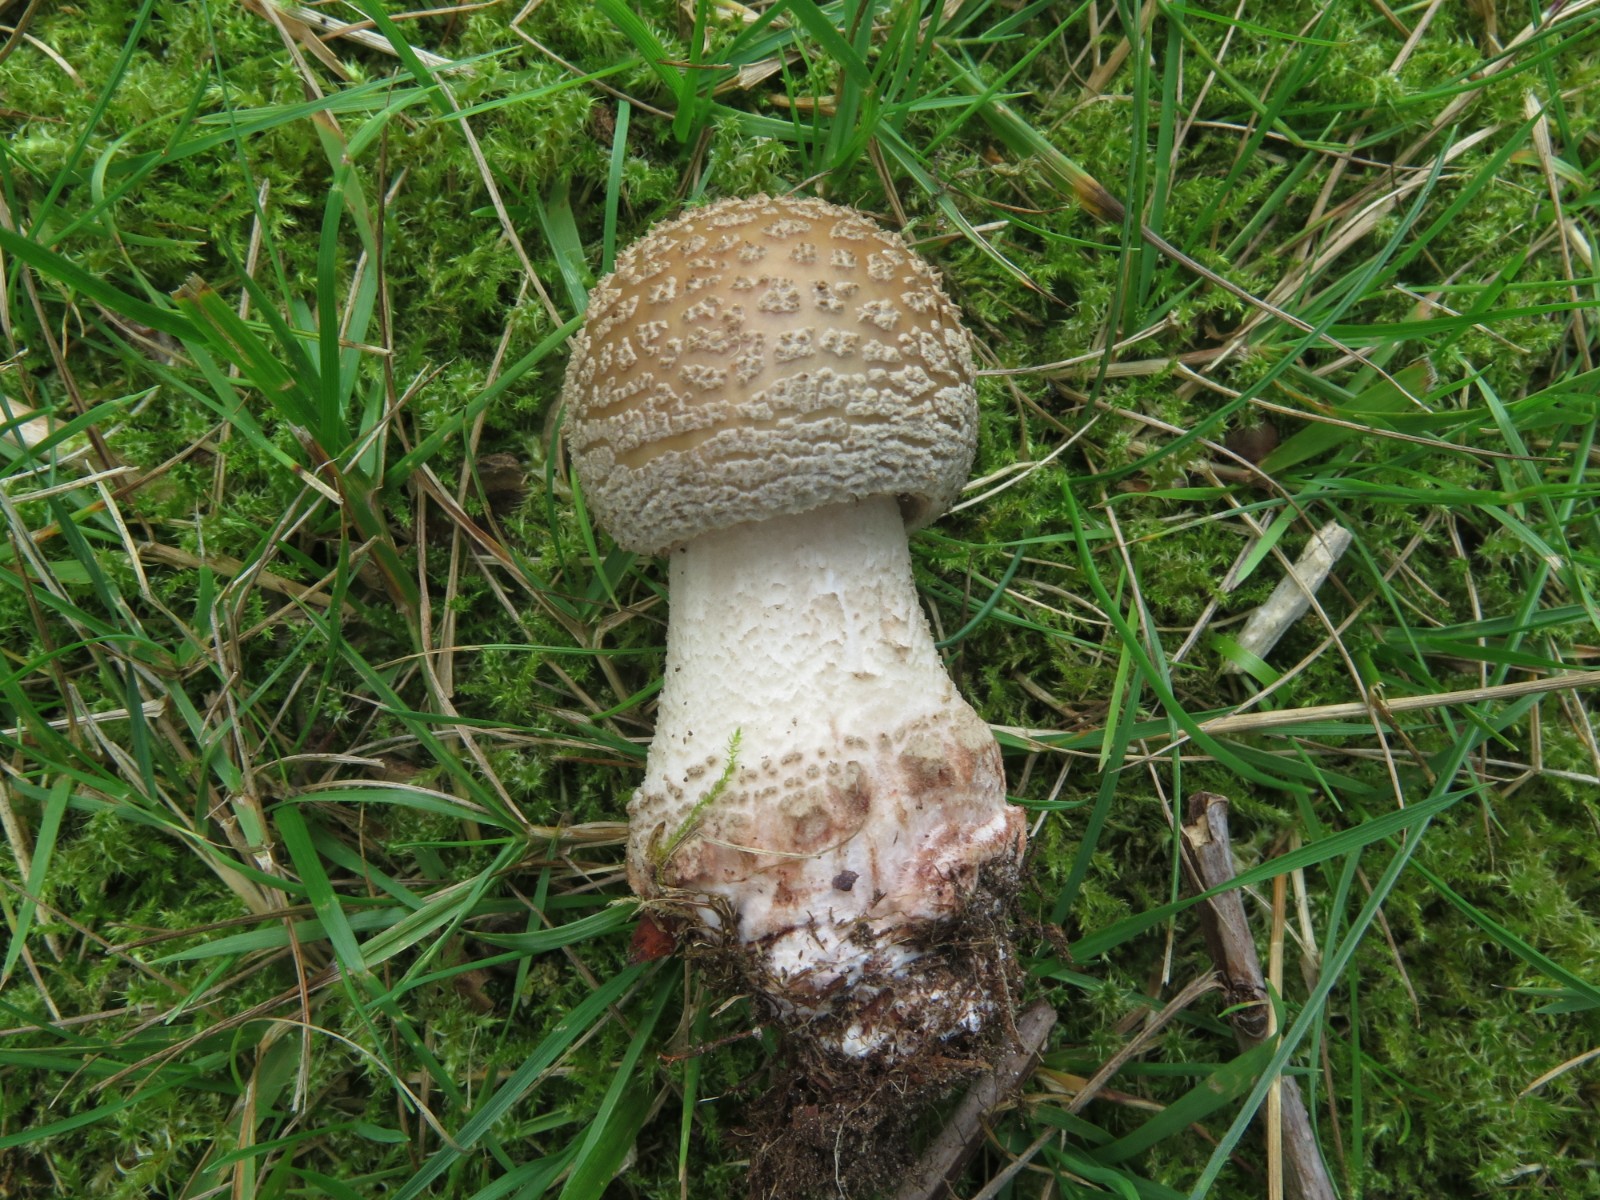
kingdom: Fungi
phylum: Basidiomycota
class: Agaricomycetes
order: Agaricales
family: Amanitaceae
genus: Amanita
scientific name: Amanita rubescens
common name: rødmende fluesvamp
